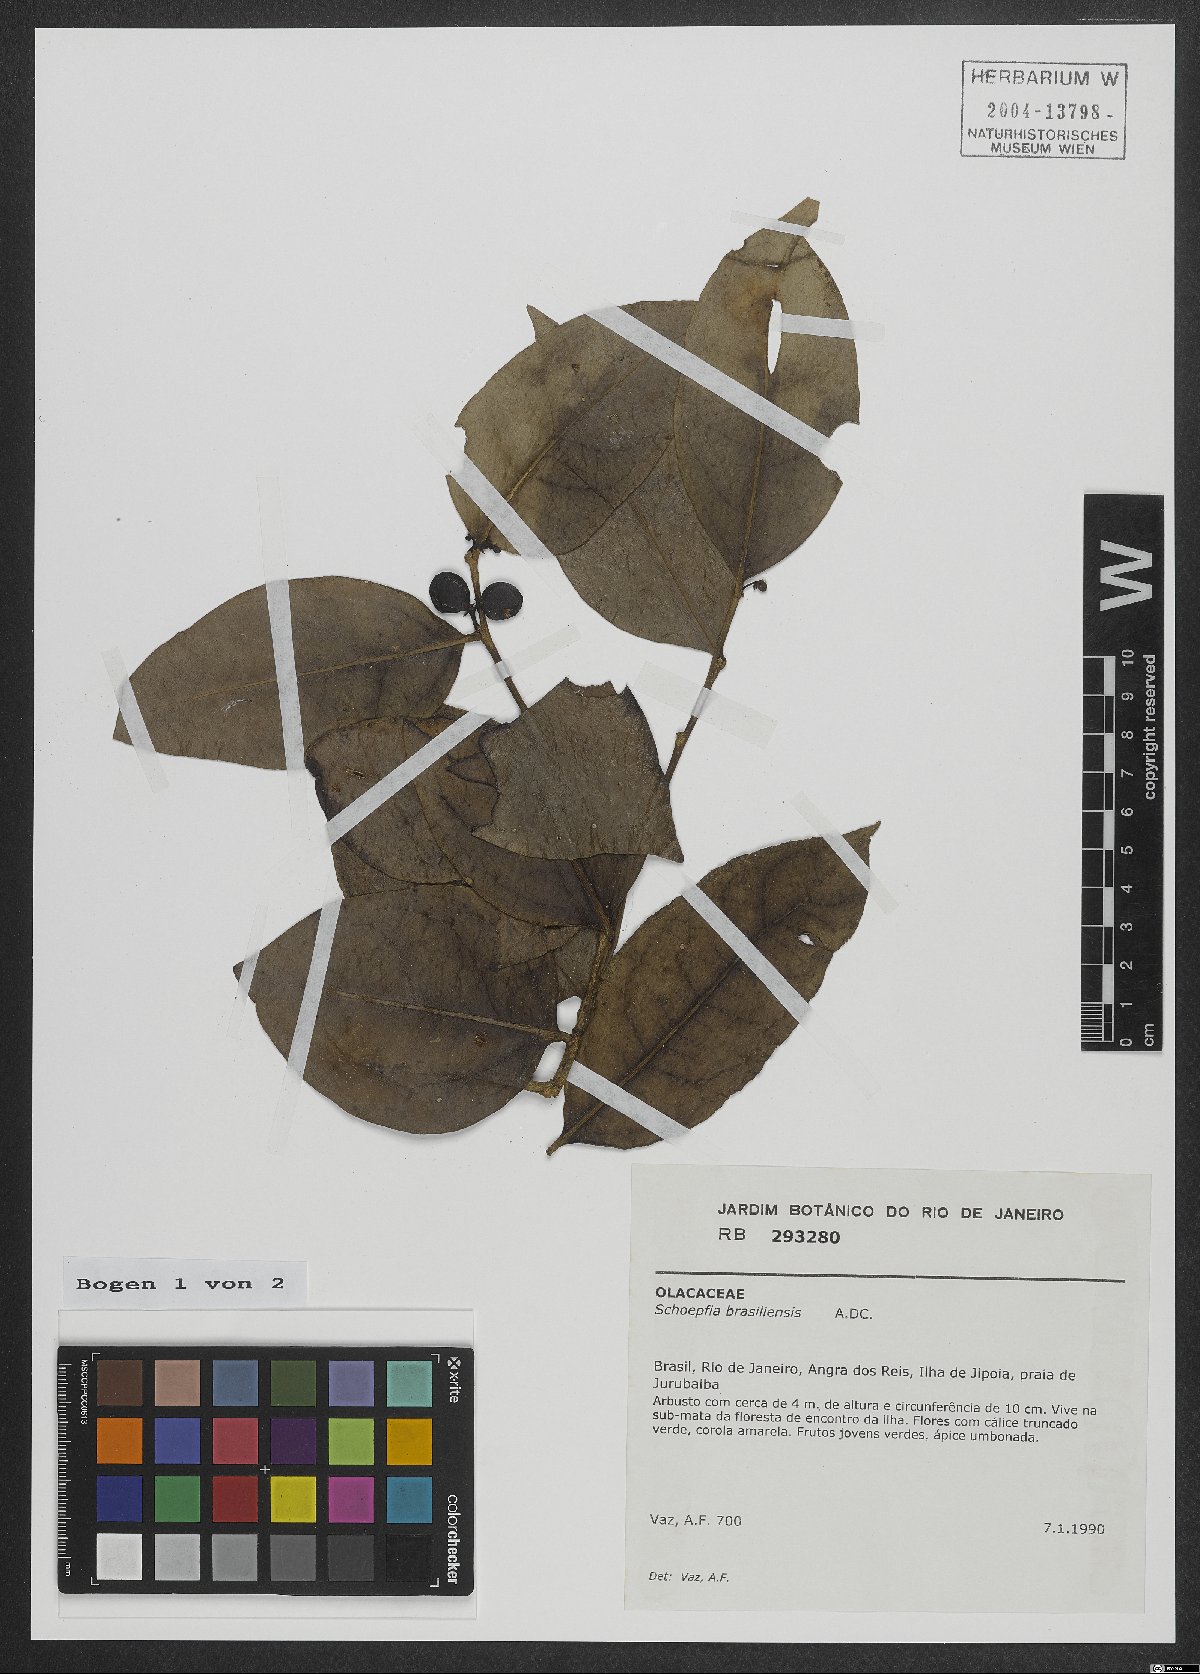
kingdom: Plantae
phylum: Tracheophyta
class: Magnoliopsida
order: Santalales
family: Schoepfiaceae
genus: Schoepfia
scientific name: Schoepfia brasiliensis
